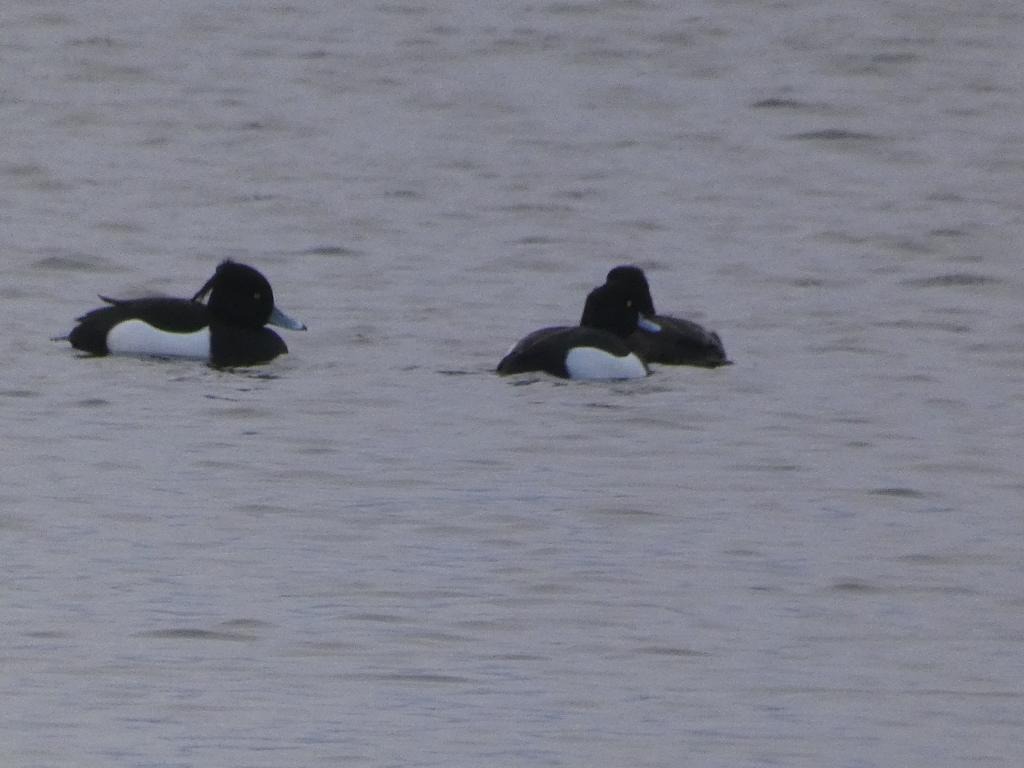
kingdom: Animalia
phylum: Chordata
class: Aves
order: Anseriformes
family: Anatidae
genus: Aythya
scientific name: Aythya fuligula
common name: Troldand
